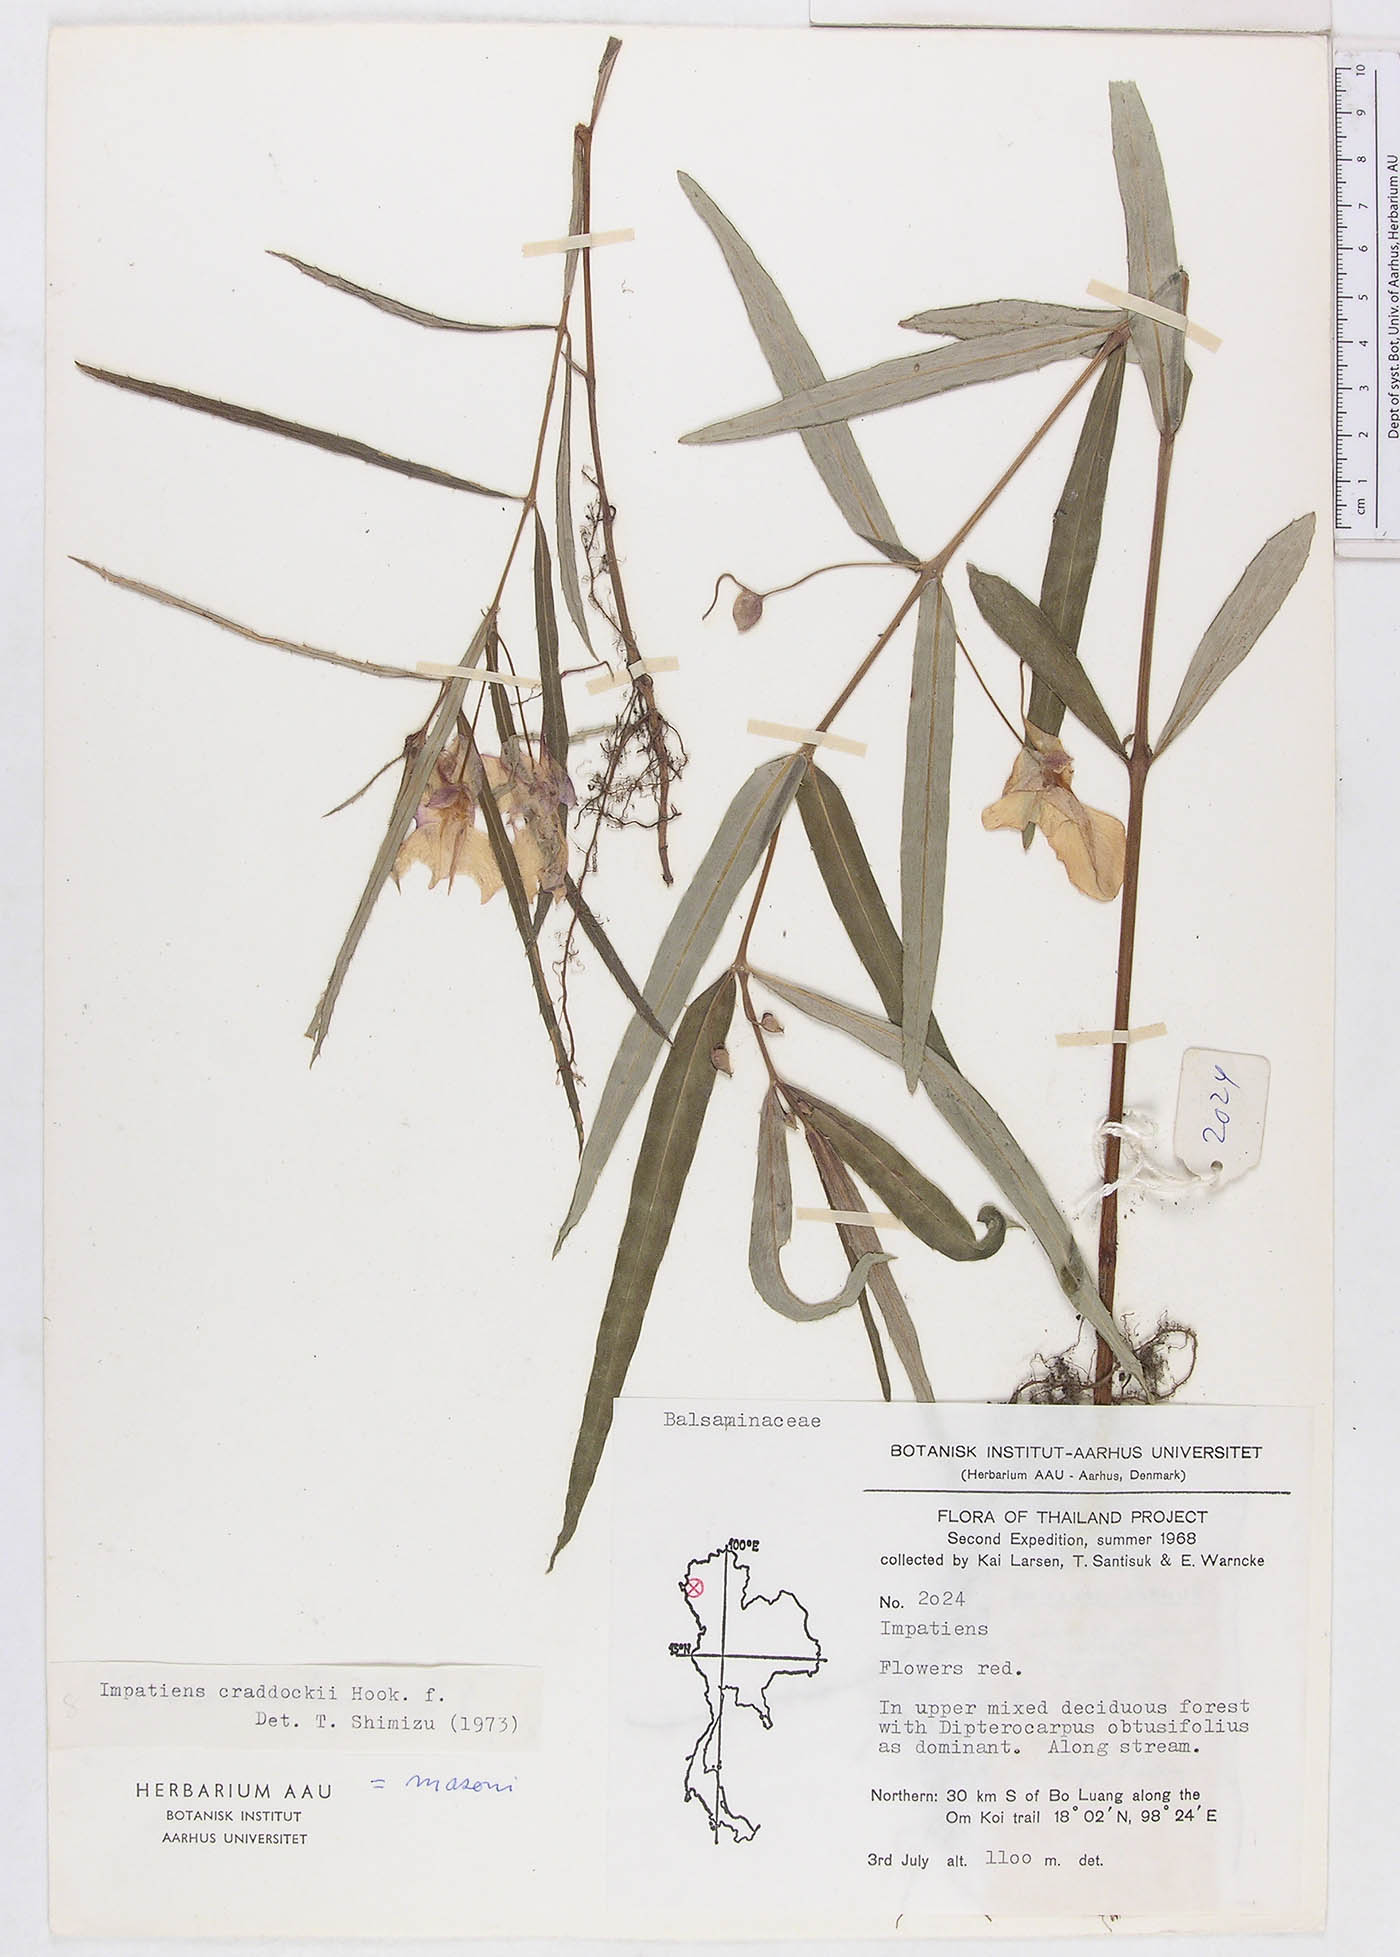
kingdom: Plantae
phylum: Tracheophyta
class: Magnoliopsida
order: Ericales
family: Balsaminaceae
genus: Impatiens
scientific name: Impatiens masonii
